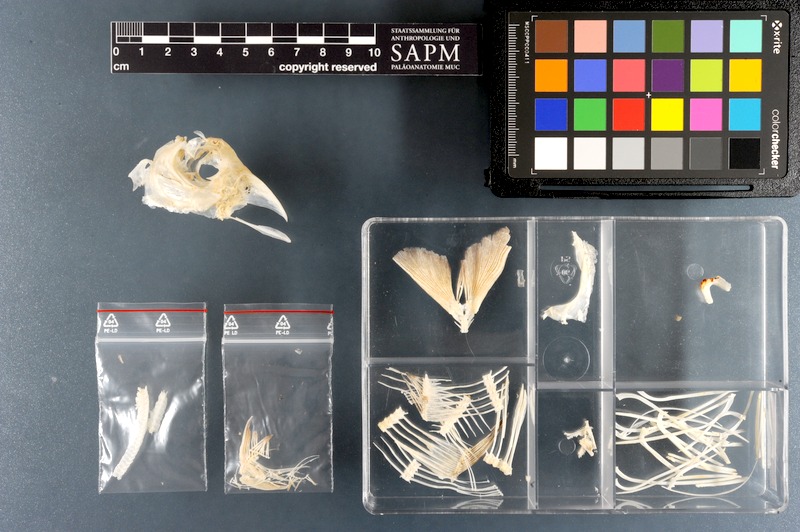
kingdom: Animalia
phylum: Chordata
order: Characiformes
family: Serrasalmidae
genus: Metynnis
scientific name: Metynnis
